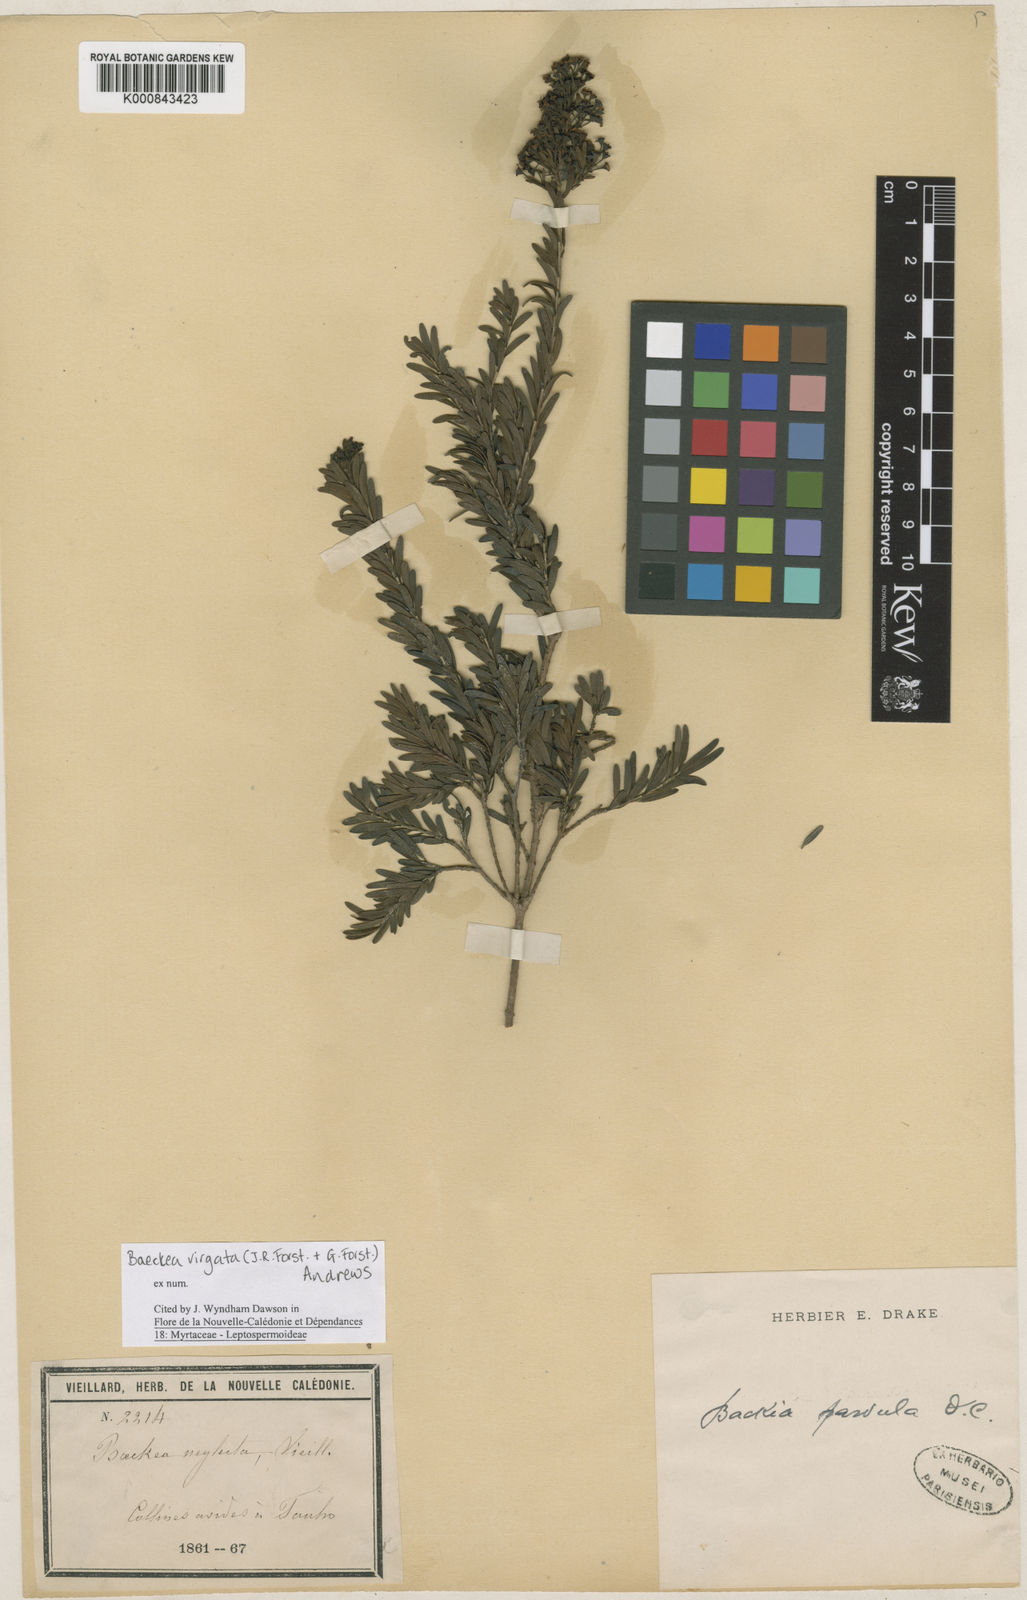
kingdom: Plantae
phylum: Tracheophyta
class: Magnoliopsida
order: Myrtales
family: Myrtaceae
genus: Sannantha
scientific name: Sannantha virgata
